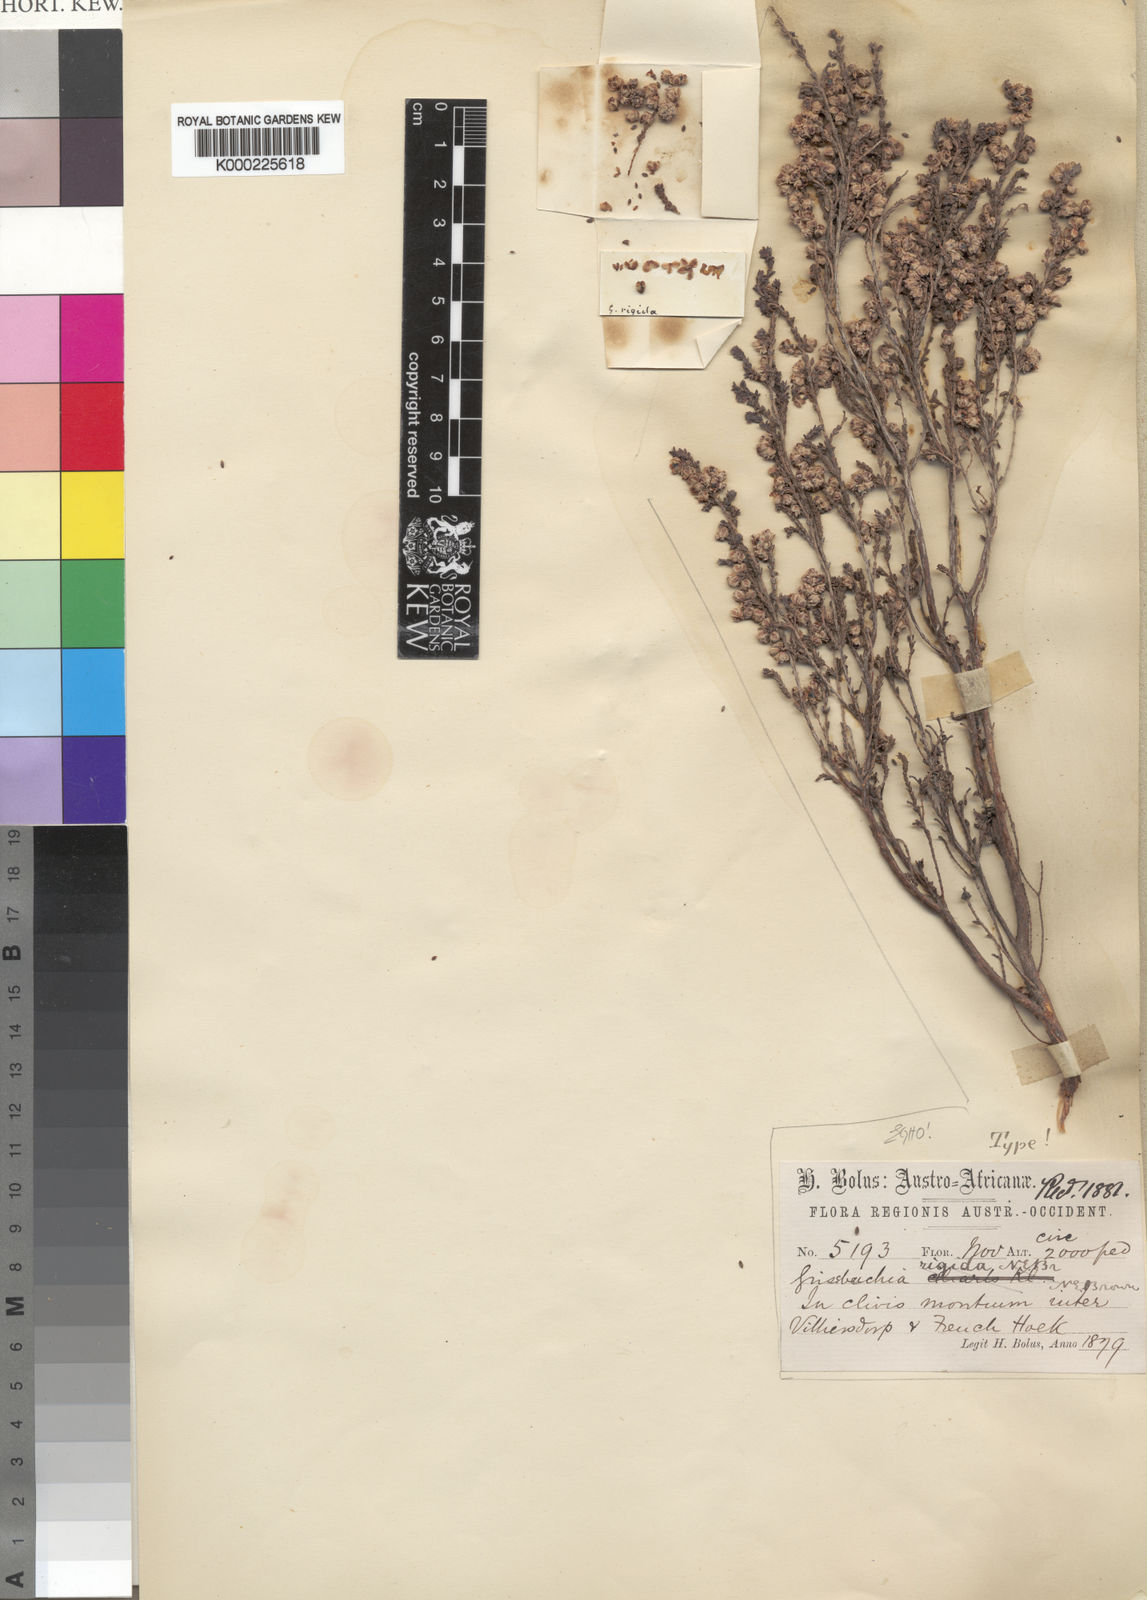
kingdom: Plantae
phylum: Tracheophyta
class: Magnoliopsida
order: Ericales
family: Ericaceae
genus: Erica
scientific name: Erica plumosa
